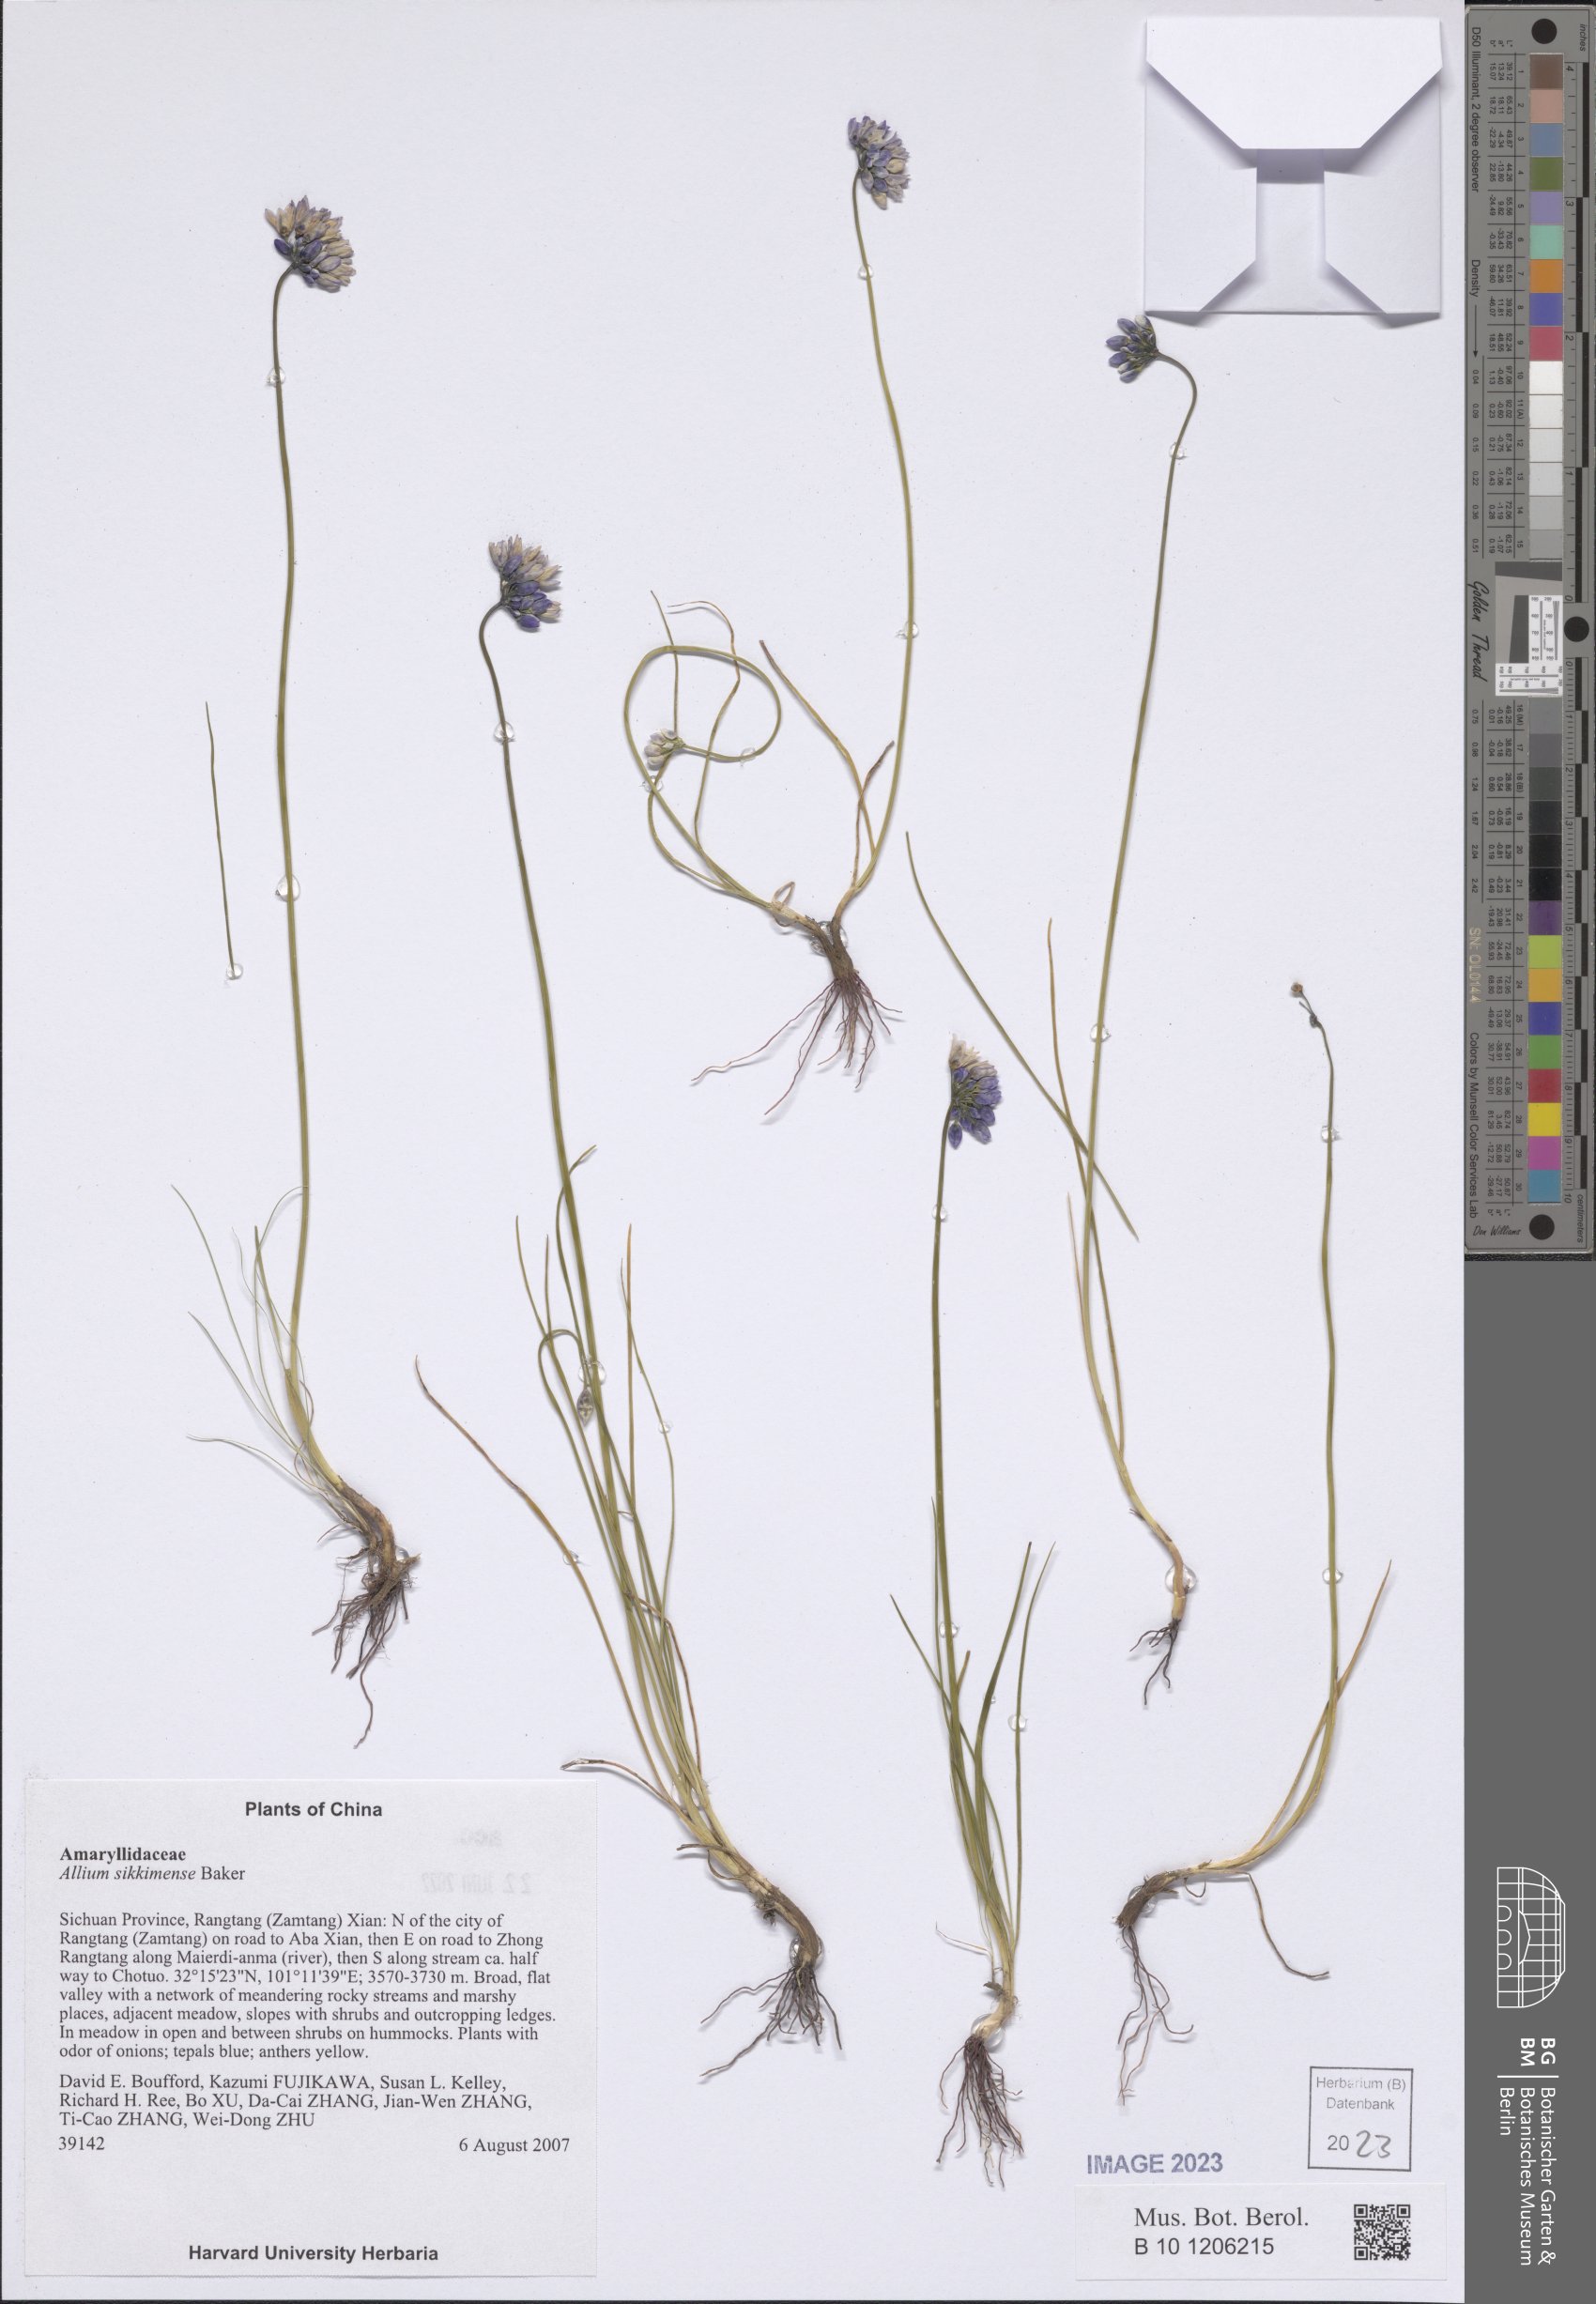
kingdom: Plantae
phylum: Tracheophyta
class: Liliopsida
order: Asparagales
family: Amaryllidaceae
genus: Allium
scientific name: Allium sikkimense
